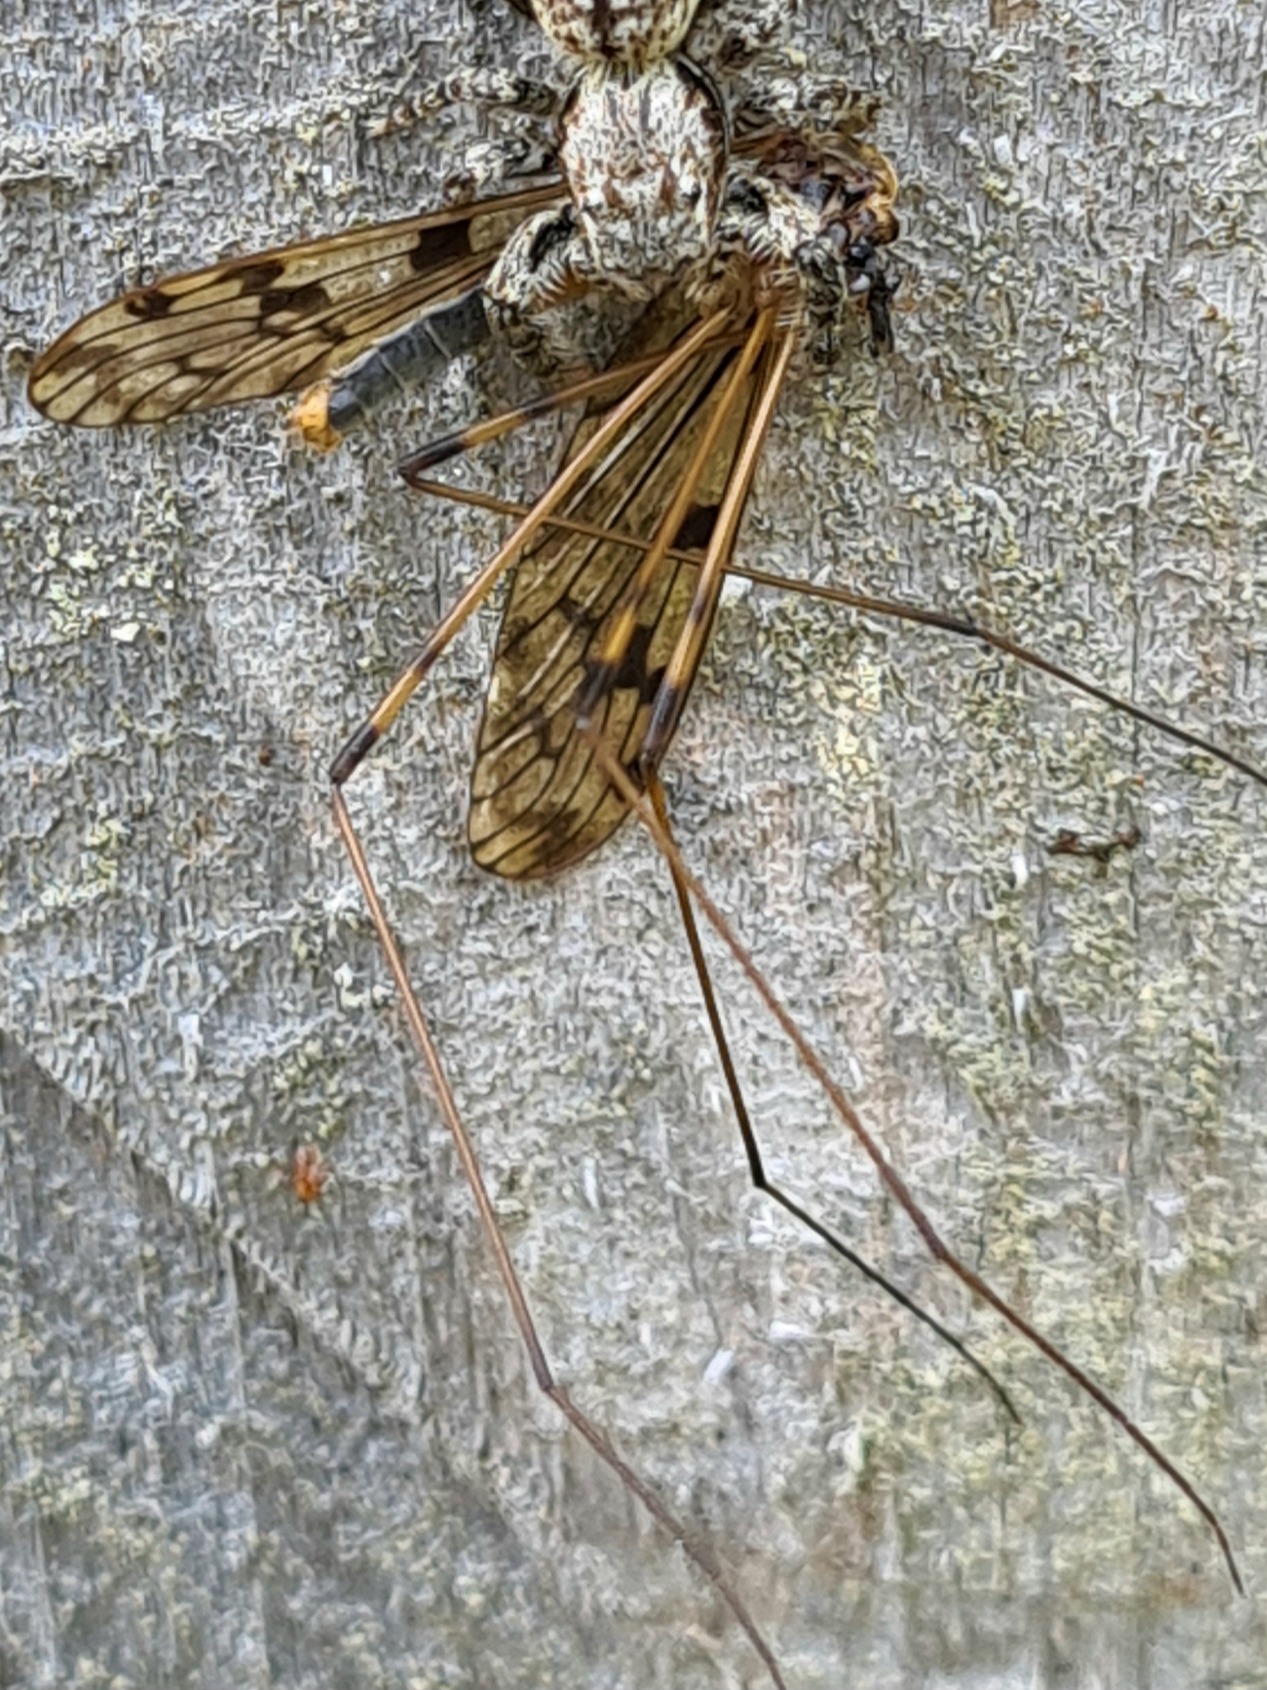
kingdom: Animalia
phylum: Arthropoda
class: Insecta
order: Diptera
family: Limoniidae
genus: Metalimnobia
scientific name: Metalimnobia quadrimaculata
